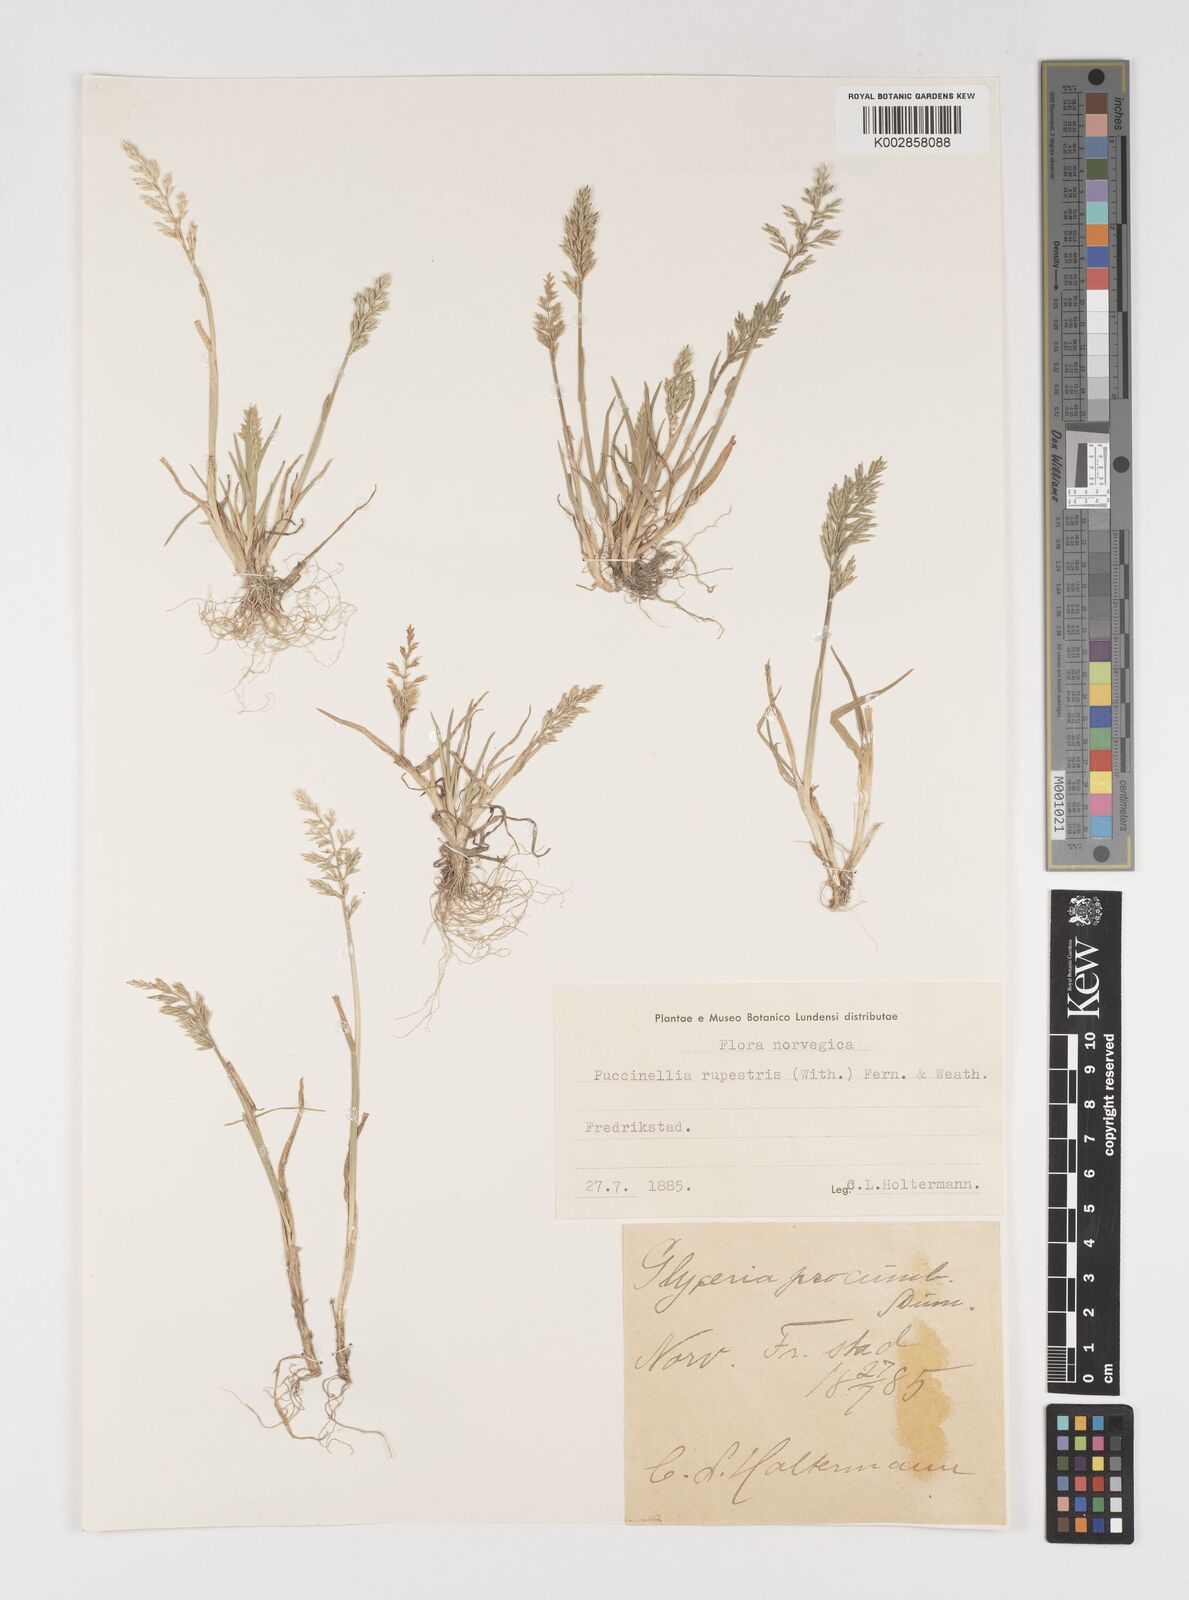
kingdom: Plantae
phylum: Tracheophyta
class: Liliopsida
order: Poales
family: Poaceae
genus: Puccinellia
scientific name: Puccinellia rupestris
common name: Stiff saltmarsh-grass
